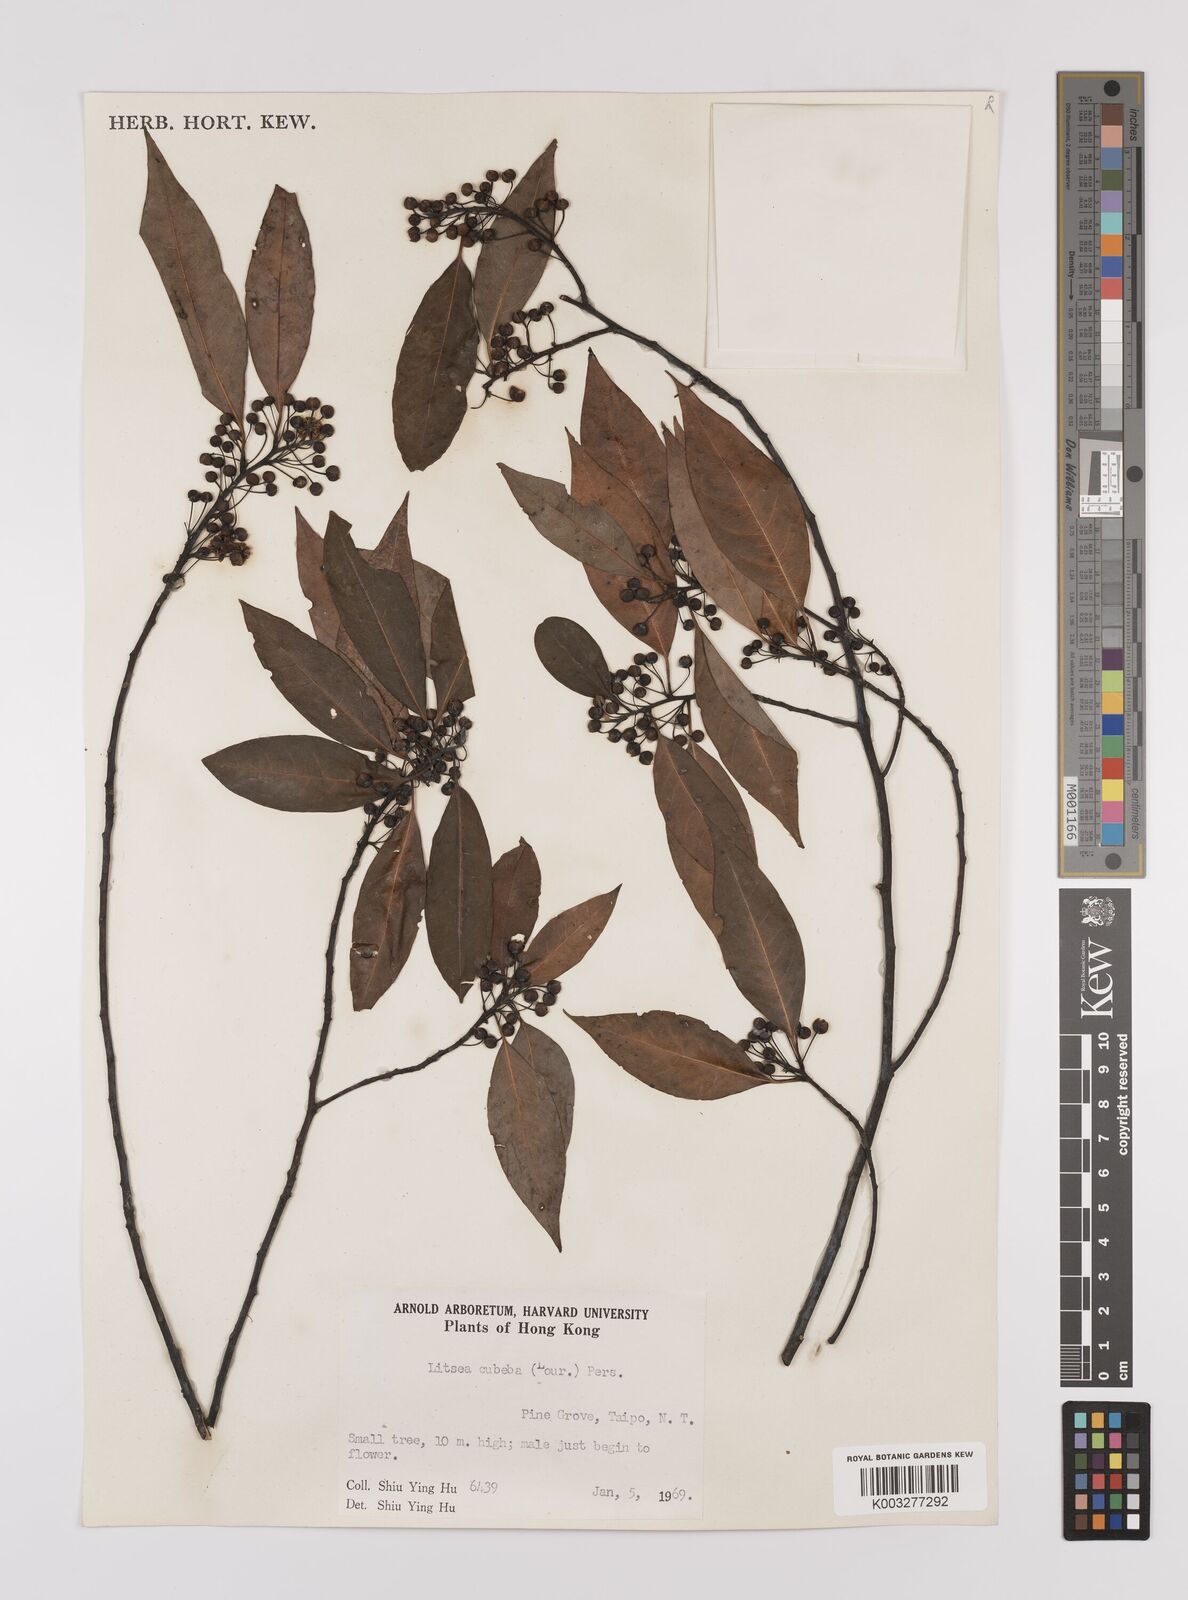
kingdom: Plantae
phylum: Tracheophyta
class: Magnoliopsida
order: Laurales
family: Lauraceae
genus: Litsea
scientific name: Litsea cubeba
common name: Mountain-pepper
